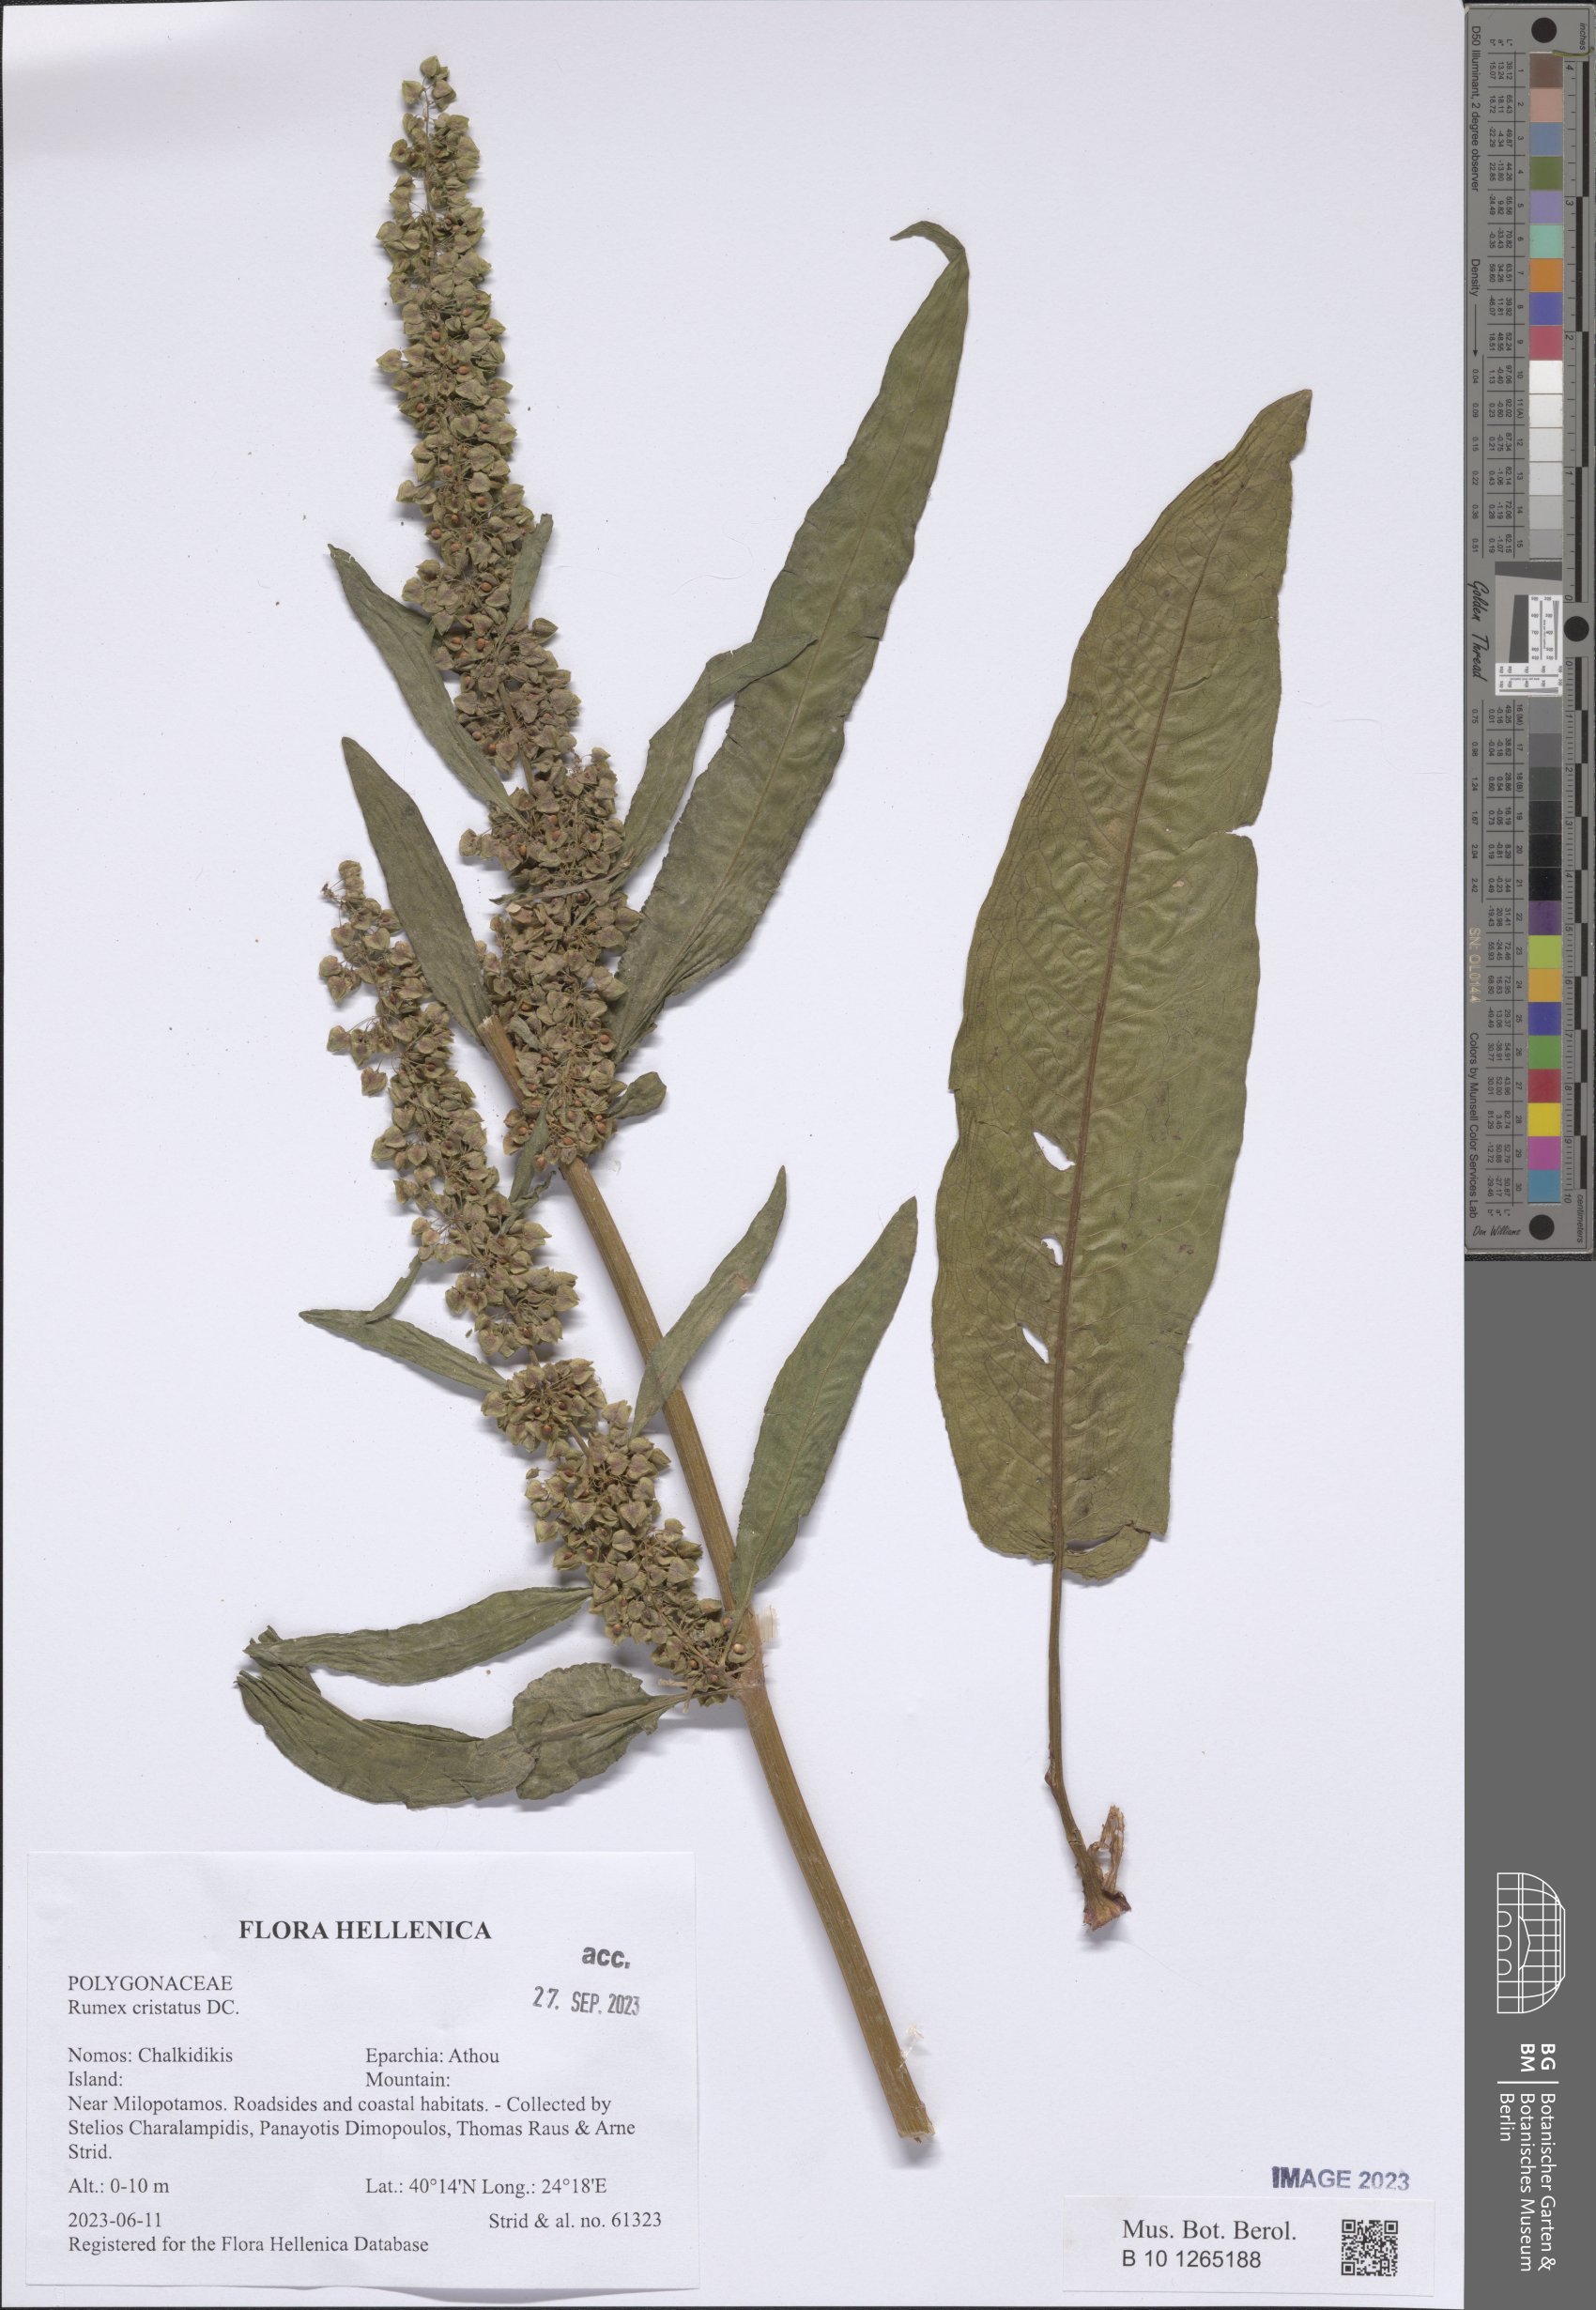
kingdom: Plantae
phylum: Tracheophyta
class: Magnoliopsida
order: Caryophyllales
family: Polygonaceae
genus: Rumex
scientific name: Rumex cristatus
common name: Greek dock
